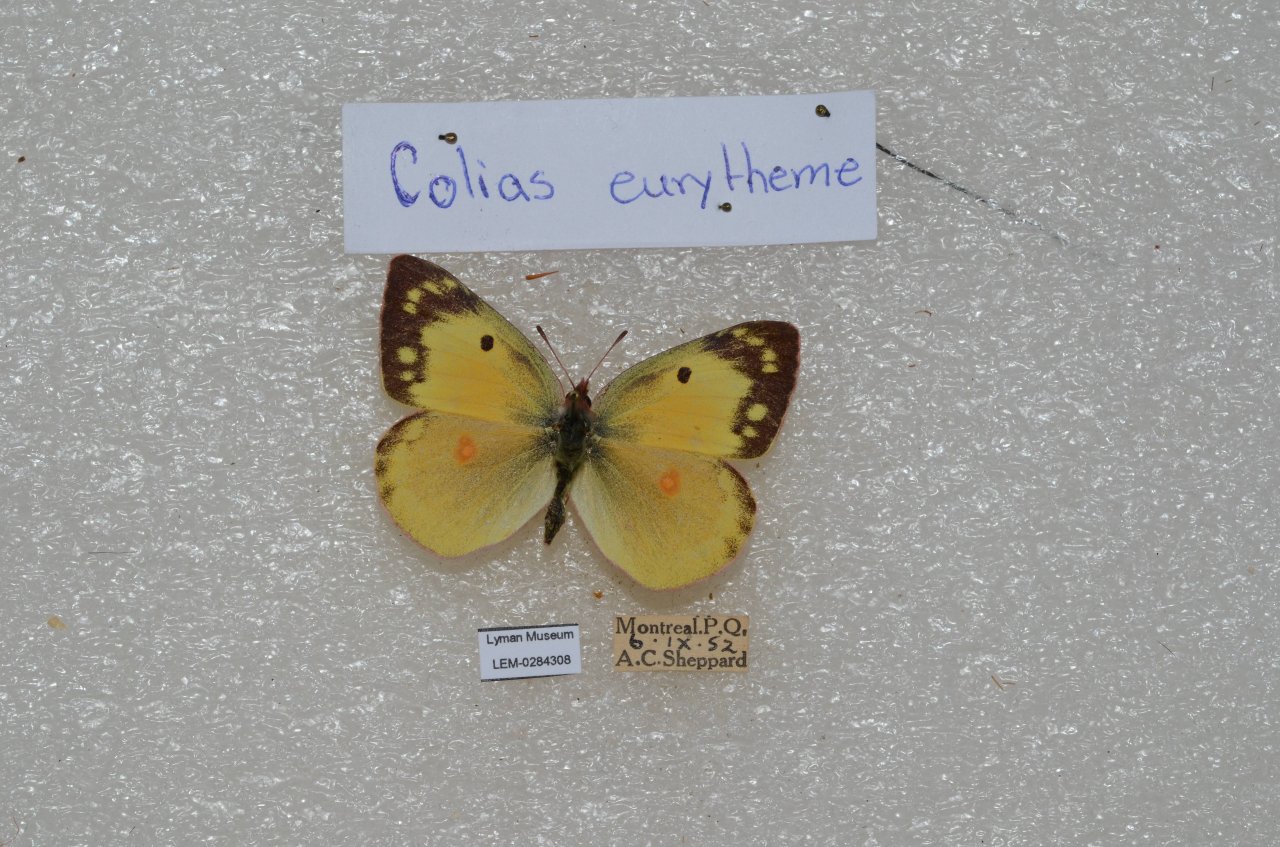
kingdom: Animalia
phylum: Arthropoda
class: Insecta
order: Lepidoptera
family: Pieridae
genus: Colias
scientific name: Colias eurytheme
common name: Orange Sulphur
